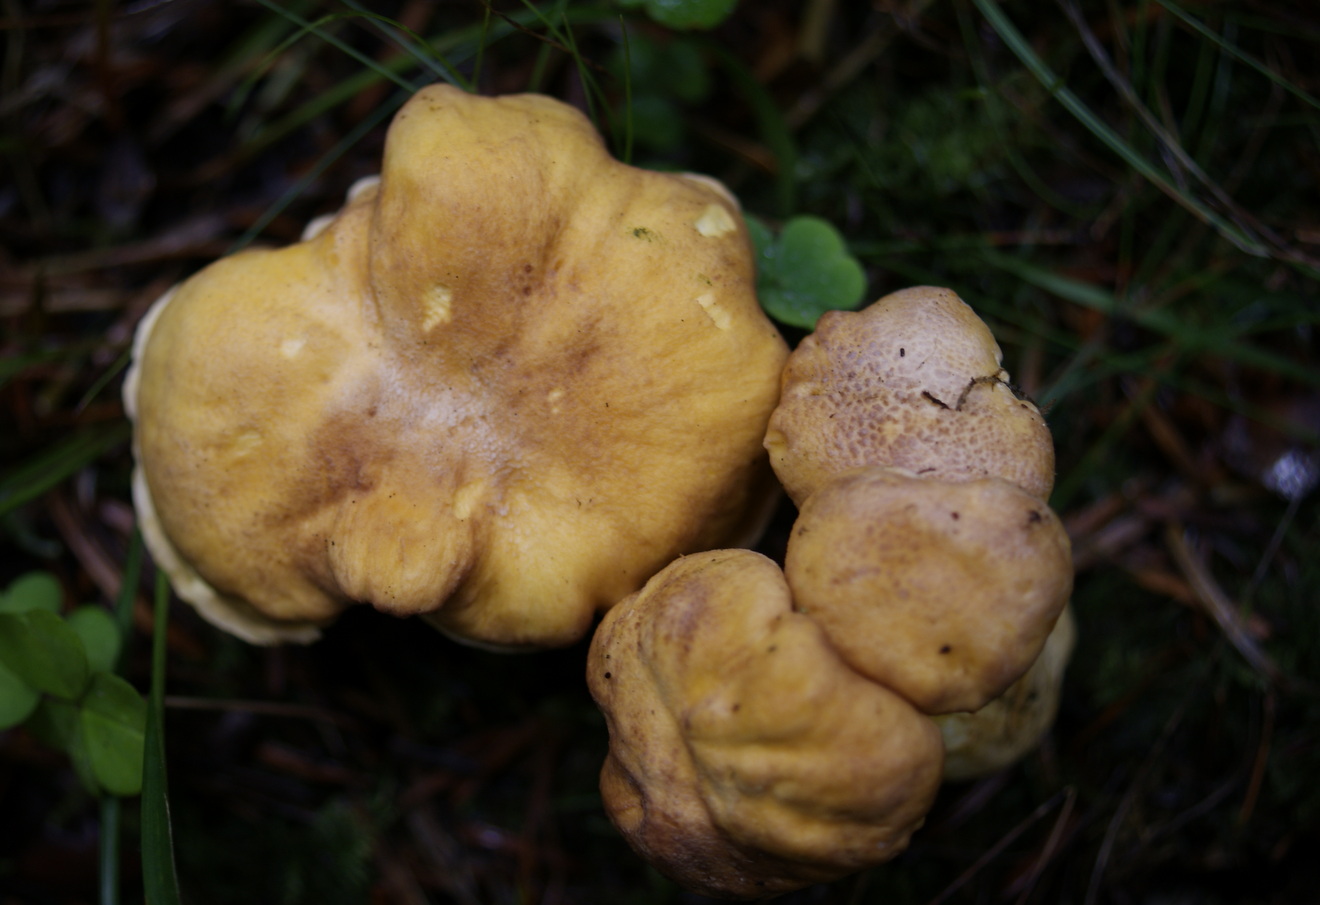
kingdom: Fungi
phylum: Basidiomycota
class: Agaricomycetes
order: Cantharellales
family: Hydnaceae
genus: Cantharellus
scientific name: Cantharellus amethysteus
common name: ametyst-kantarel
